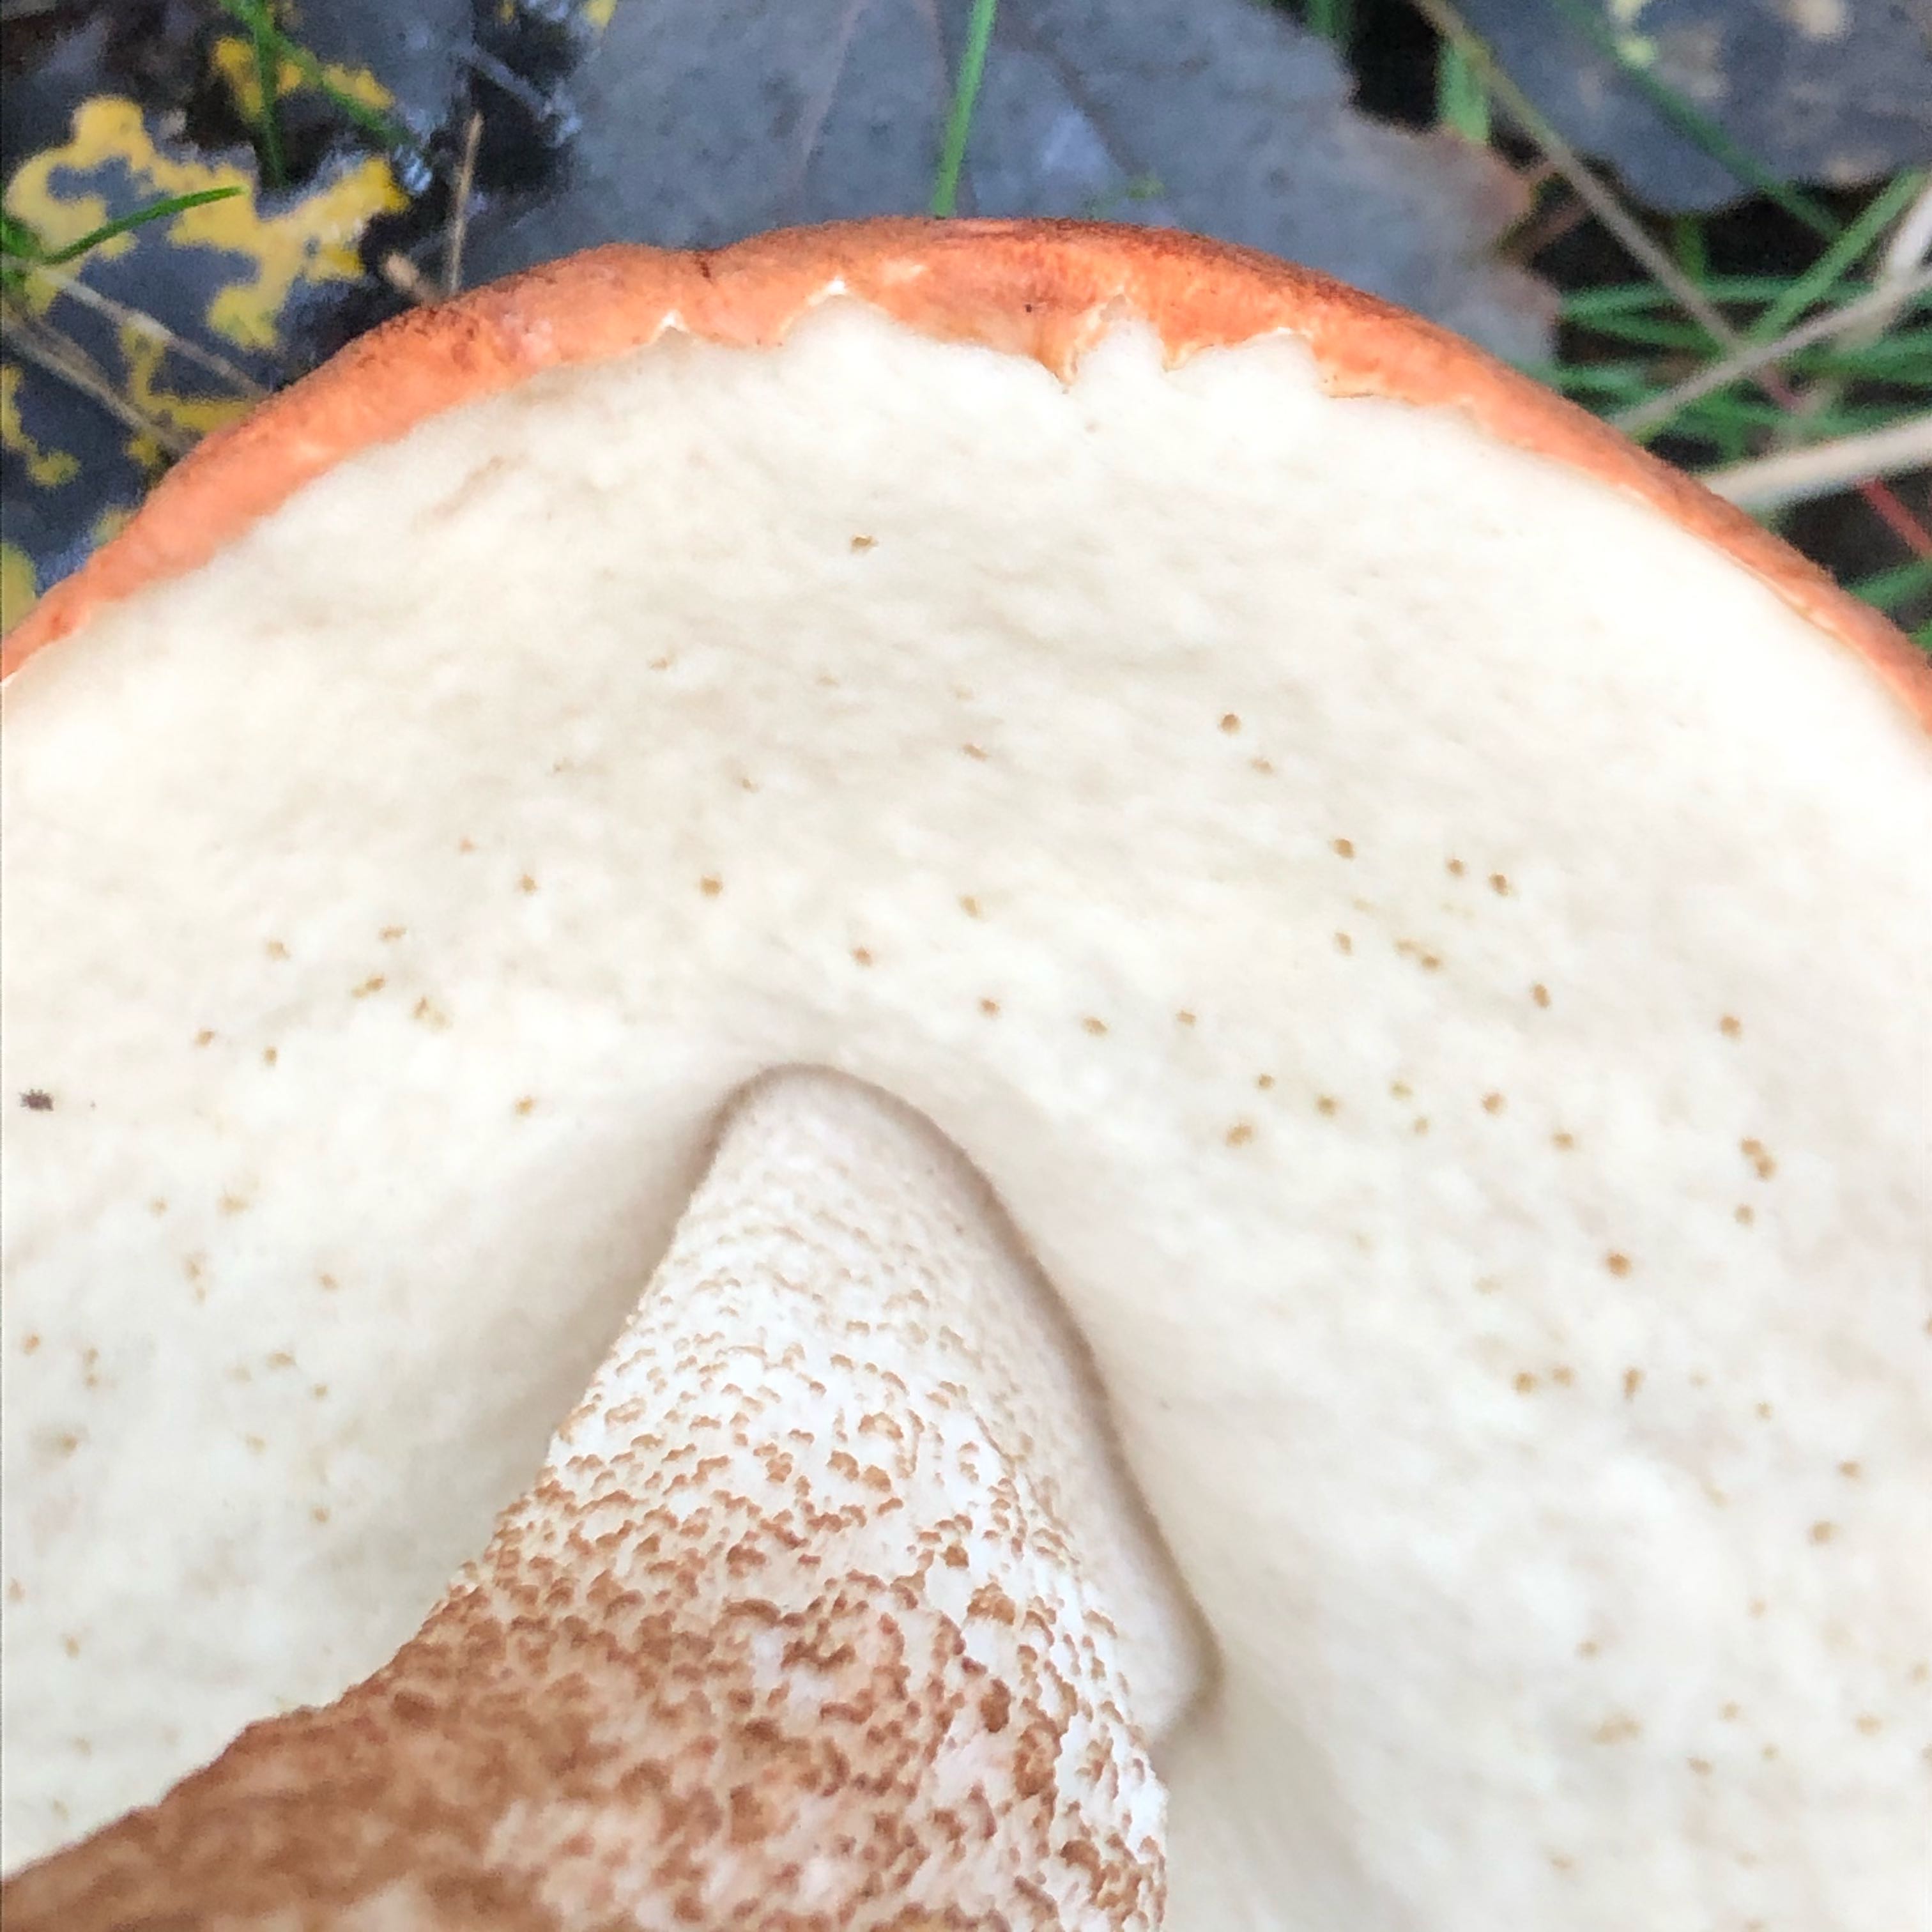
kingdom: Fungi
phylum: Basidiomycota
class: Agaricomycetes
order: Boletales
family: Boletaceae
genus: Leccinum
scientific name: Leccinum
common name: skælrørhat
